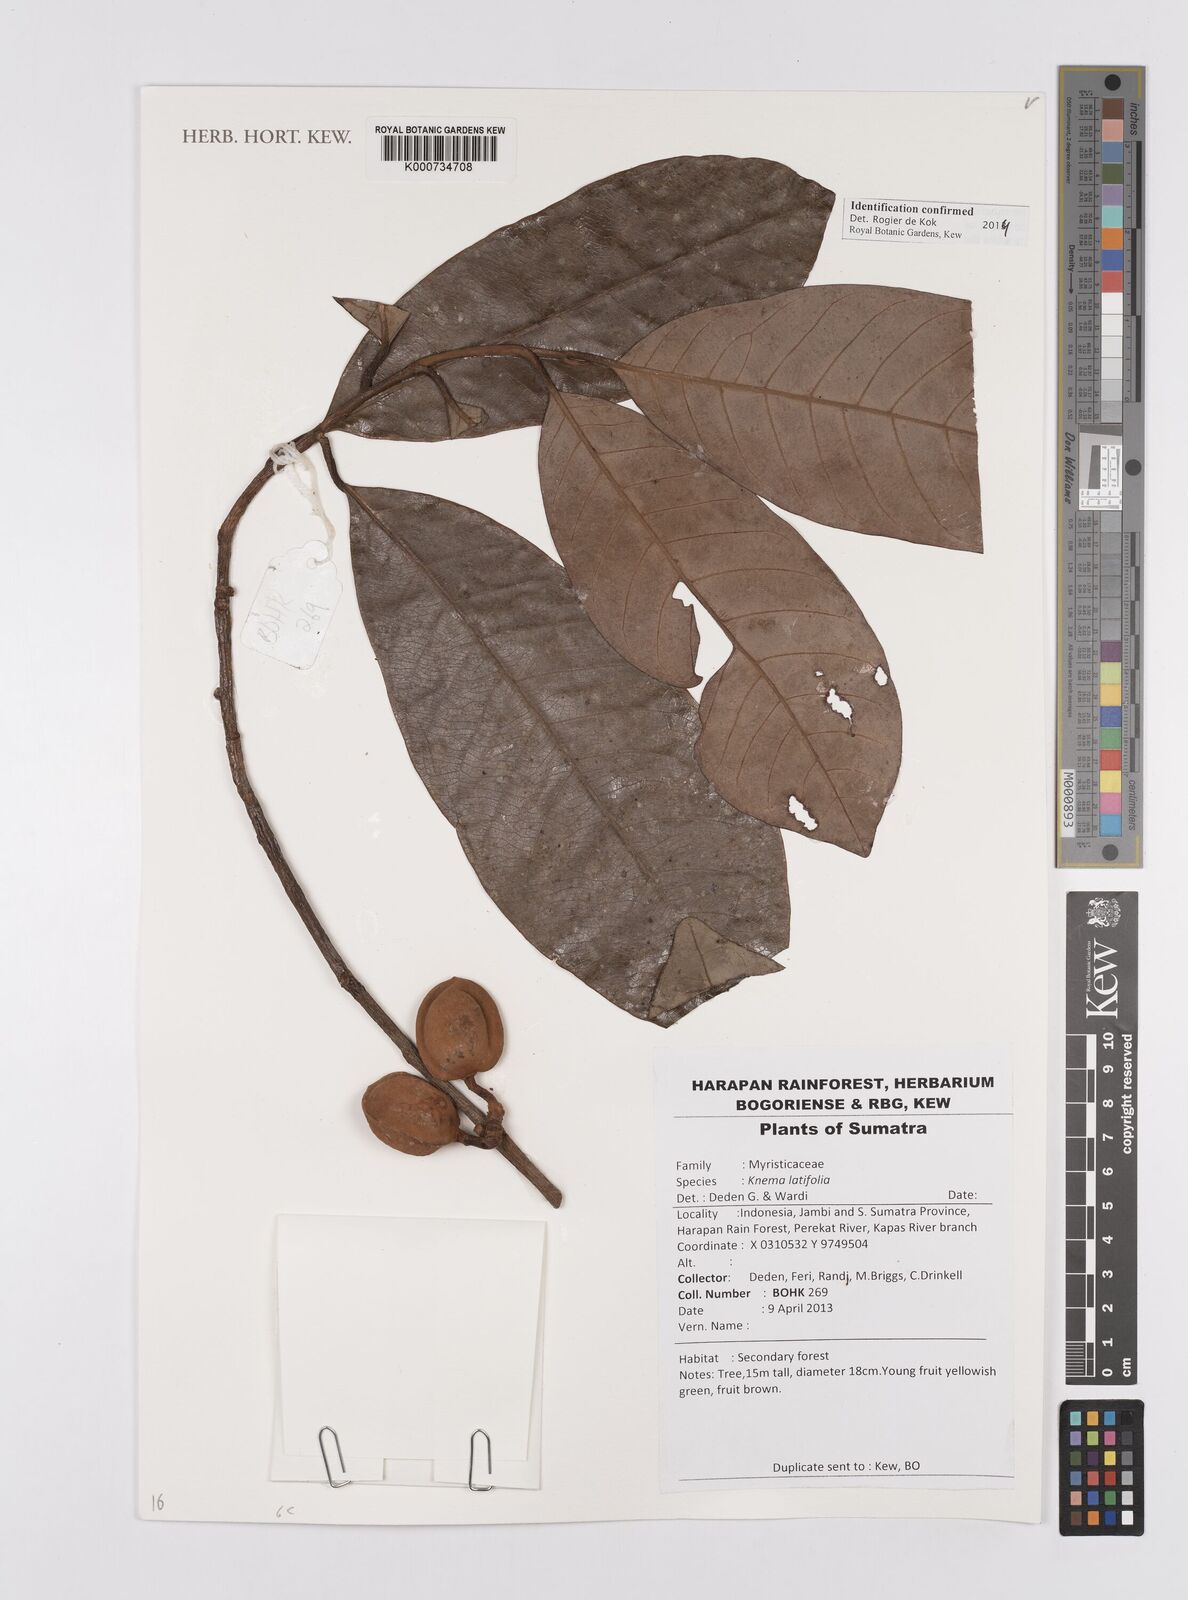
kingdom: Plantae
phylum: Tracheophyta
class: Magnoliopsida
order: Magnoliales
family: Myristicaceae
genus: Knema
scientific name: Knema latifolia
